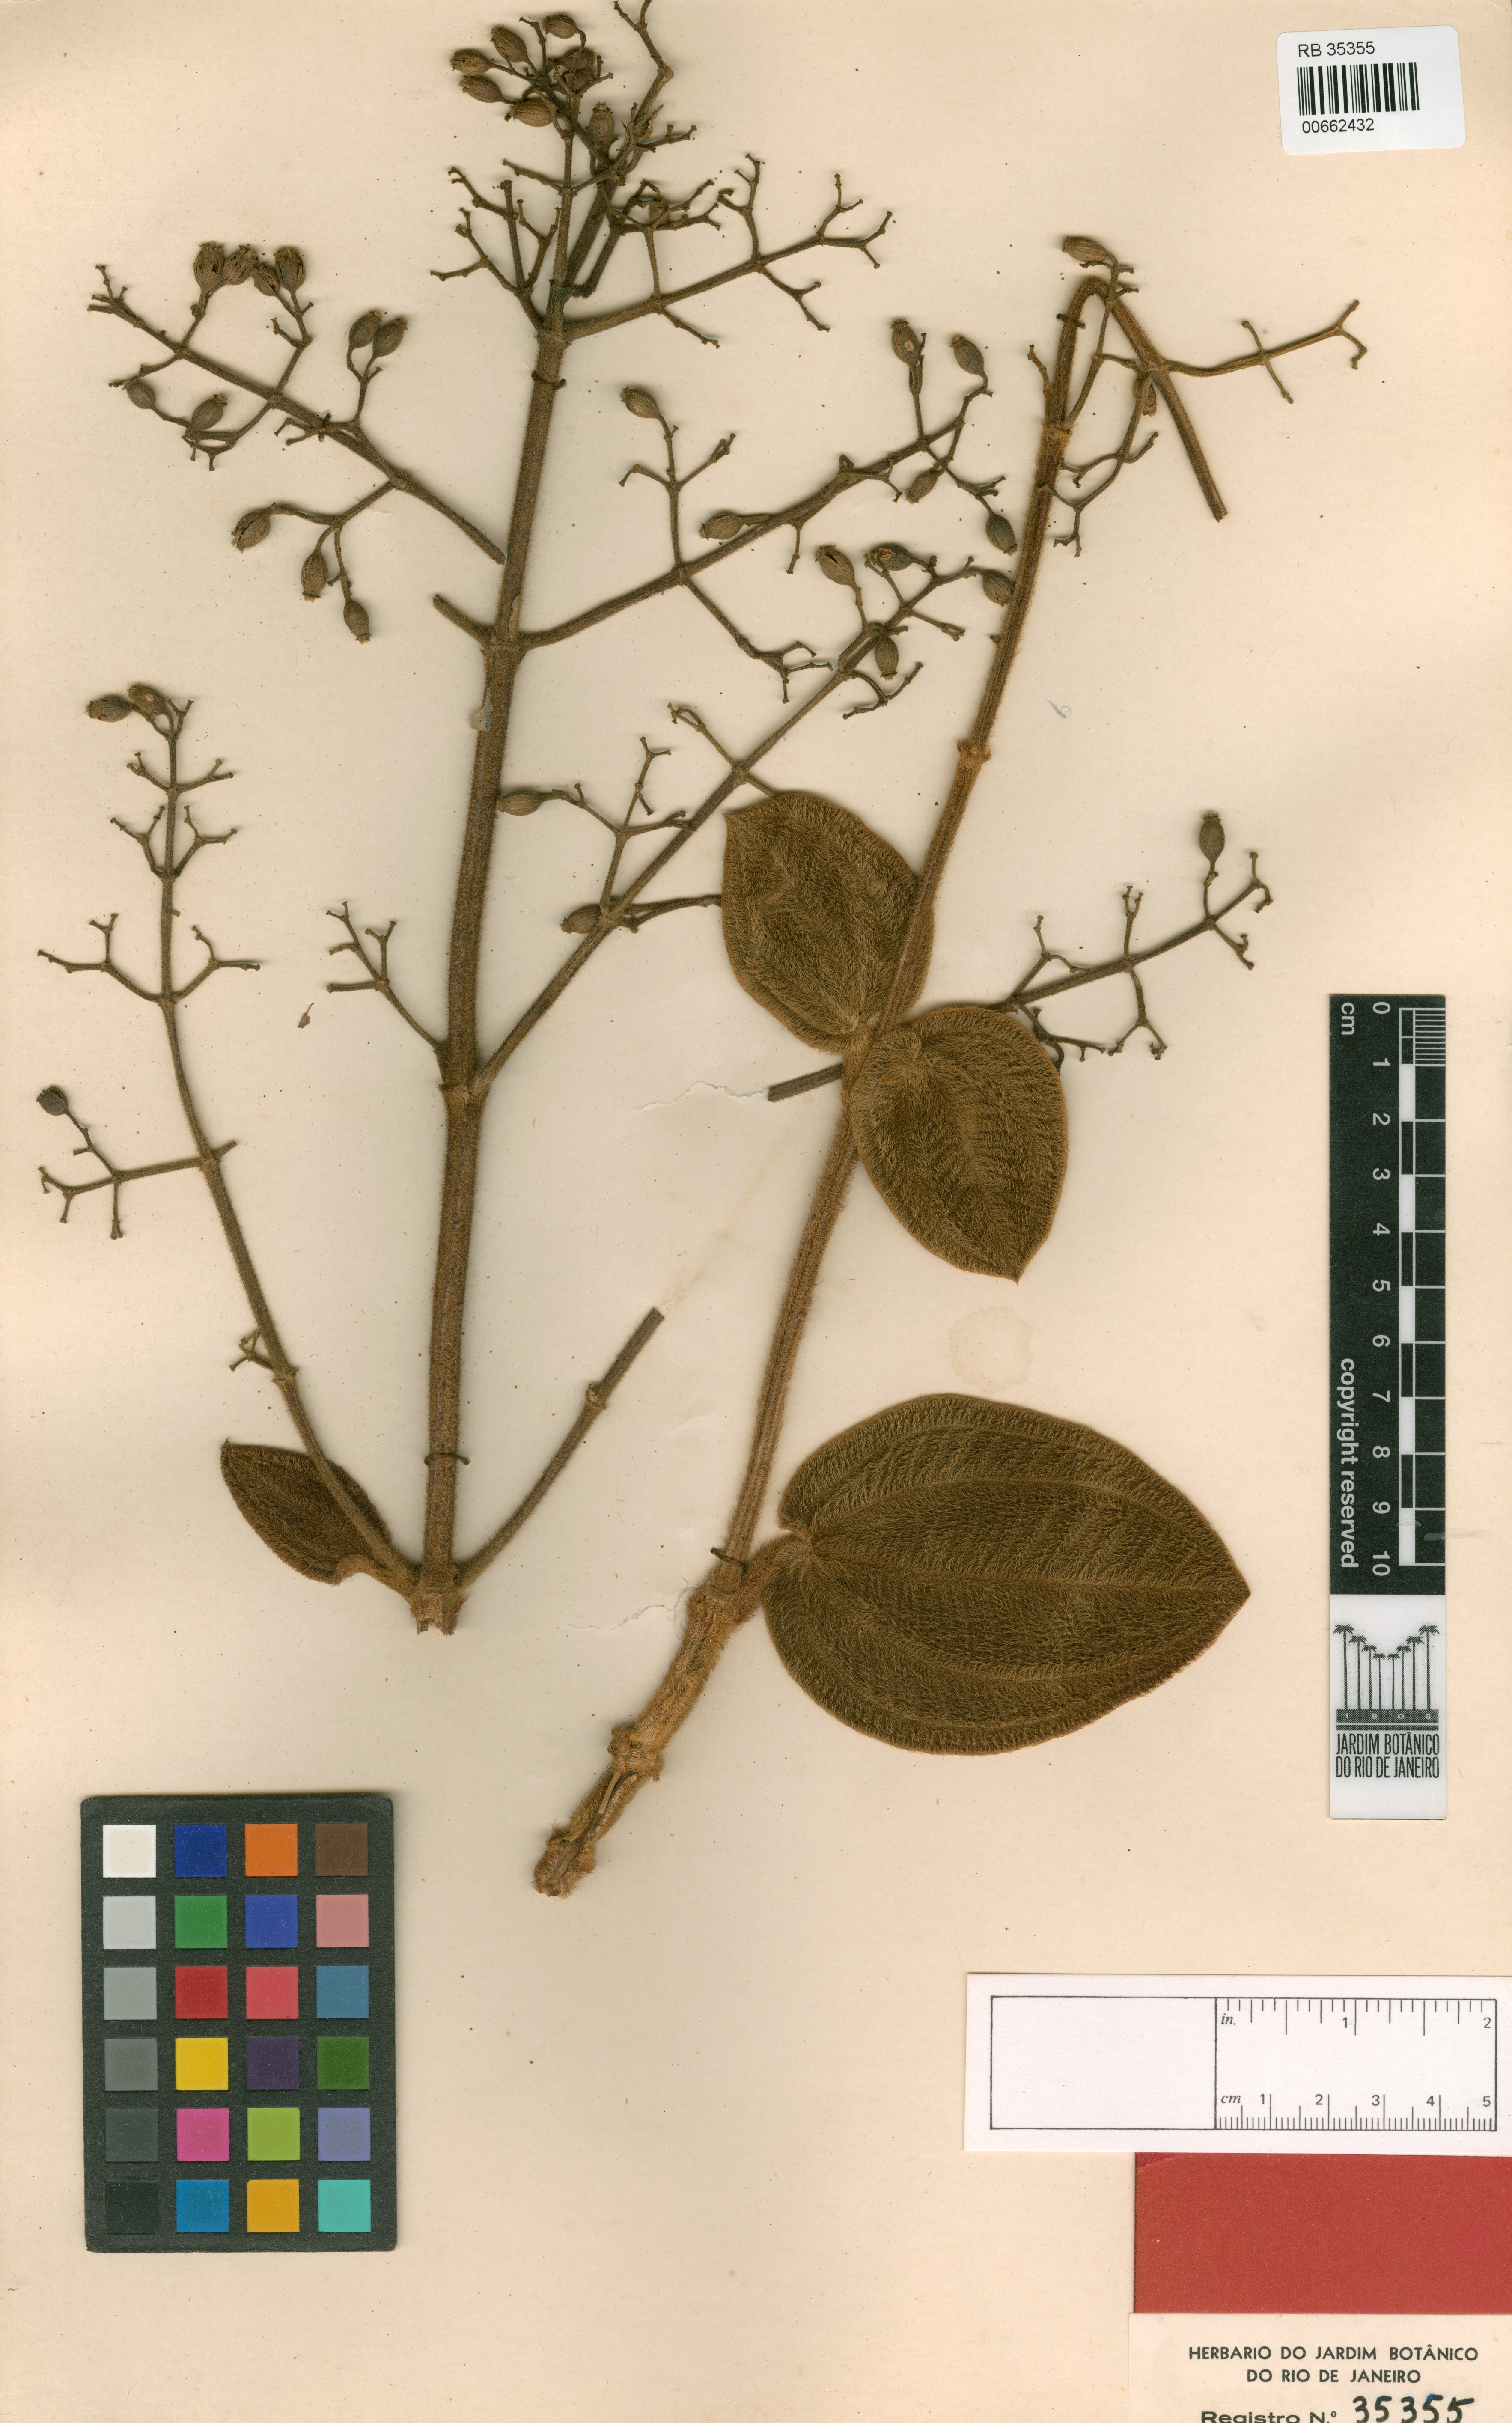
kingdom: Plantae
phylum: Tracheophyta
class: Magnoliopsida
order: Myrtales
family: Melastomataceae
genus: Pleroma
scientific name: Pleroma heteromallum
